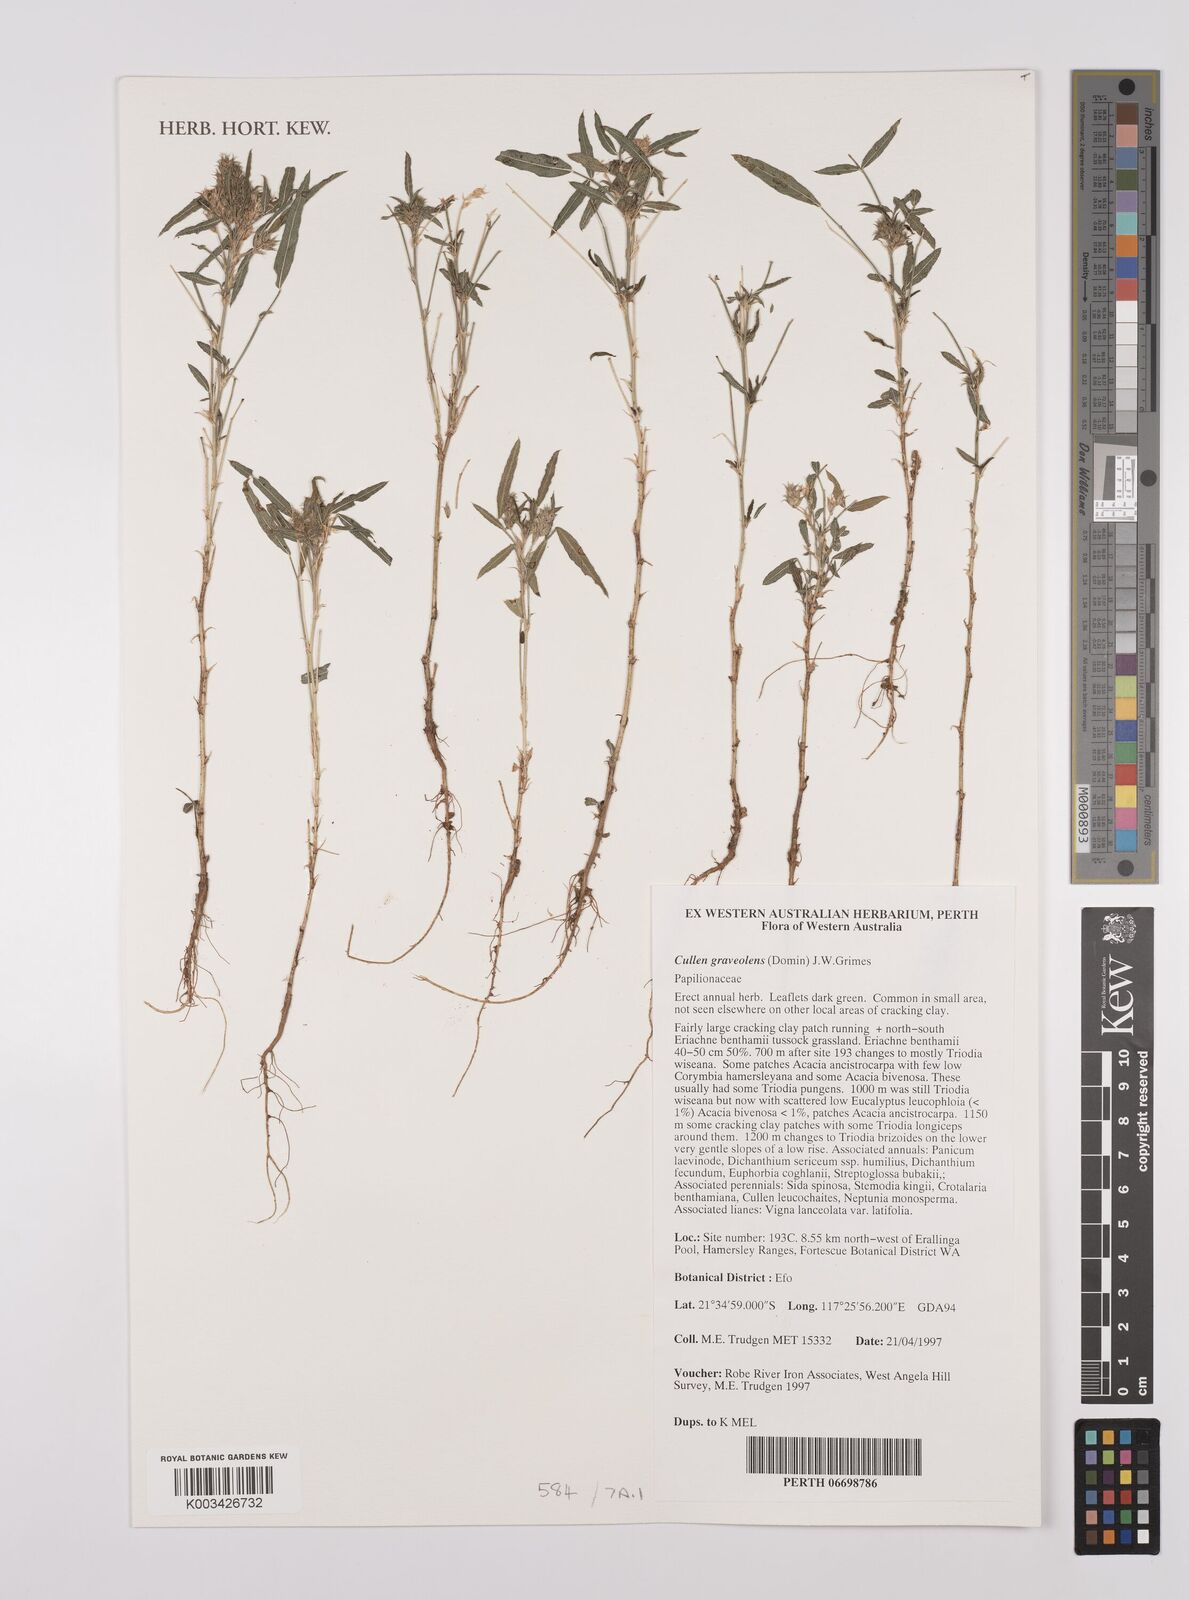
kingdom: Plantae
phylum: Tracheophyta
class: Magnoliopsida
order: Fabales
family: Fabaceae
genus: Cullen
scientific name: Cullen graveolens
